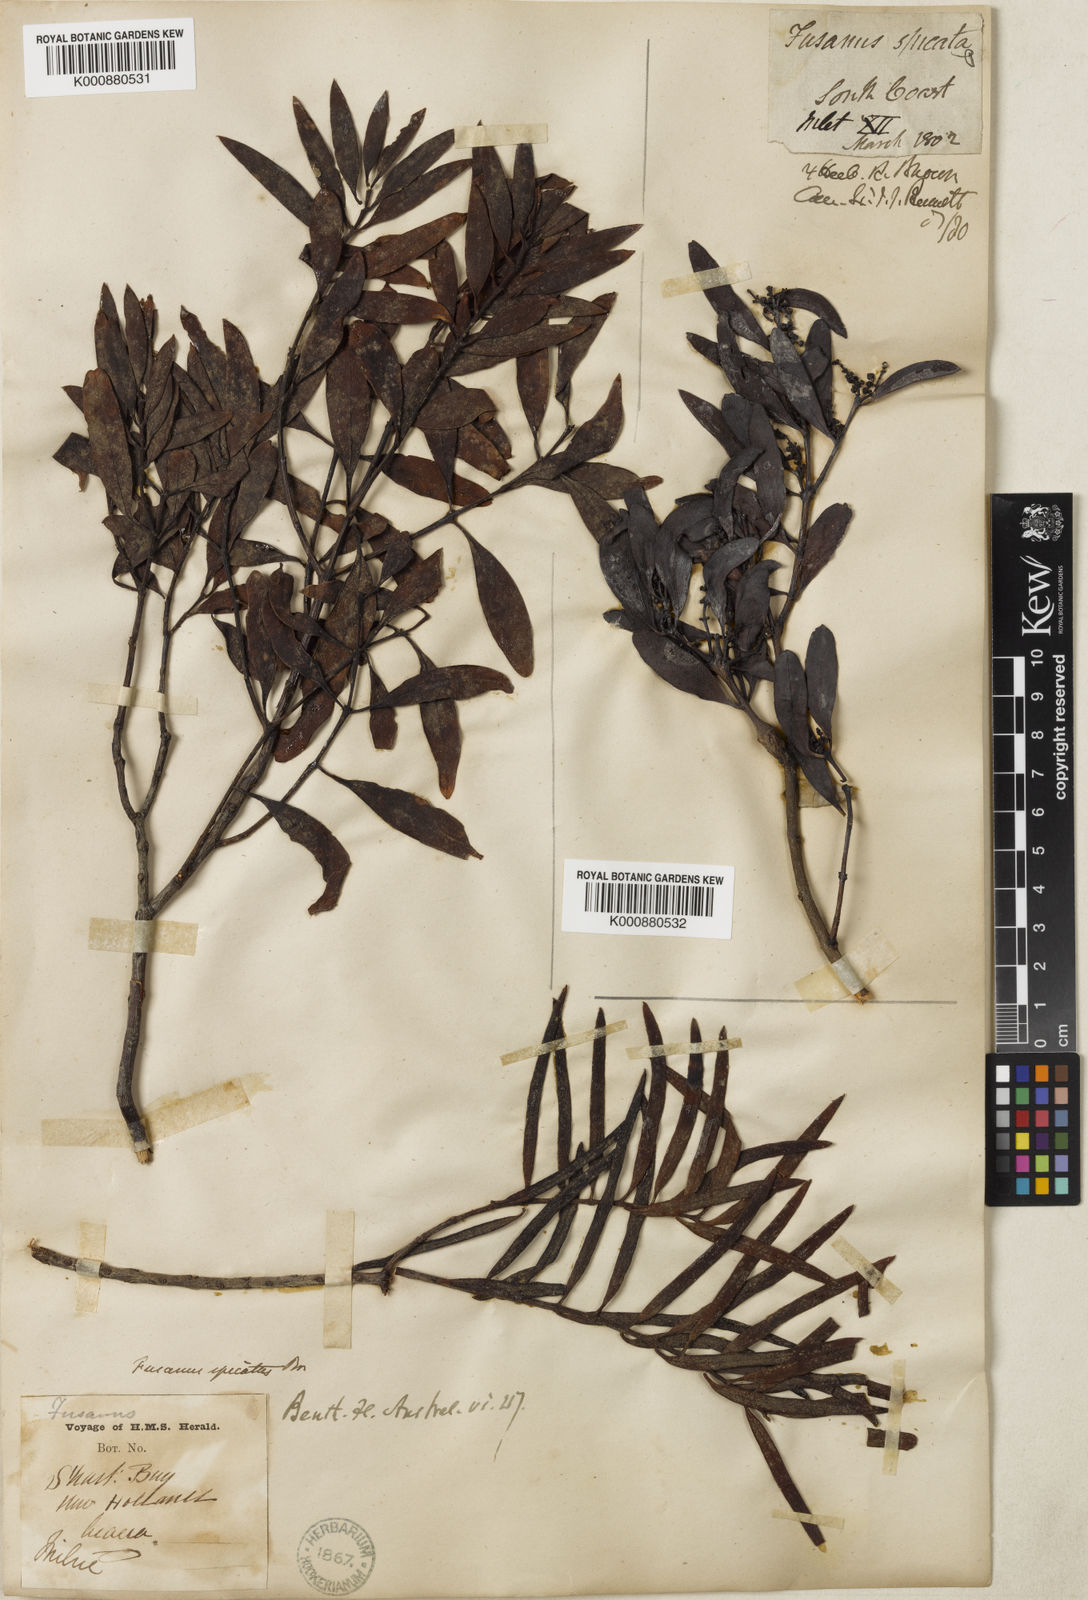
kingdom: Plantae
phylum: Tracheophyta
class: Magnoliopsida
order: Santalales
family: Santalaceae
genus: Santalum
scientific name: Santalum spicatum
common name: West australian sandalwood
